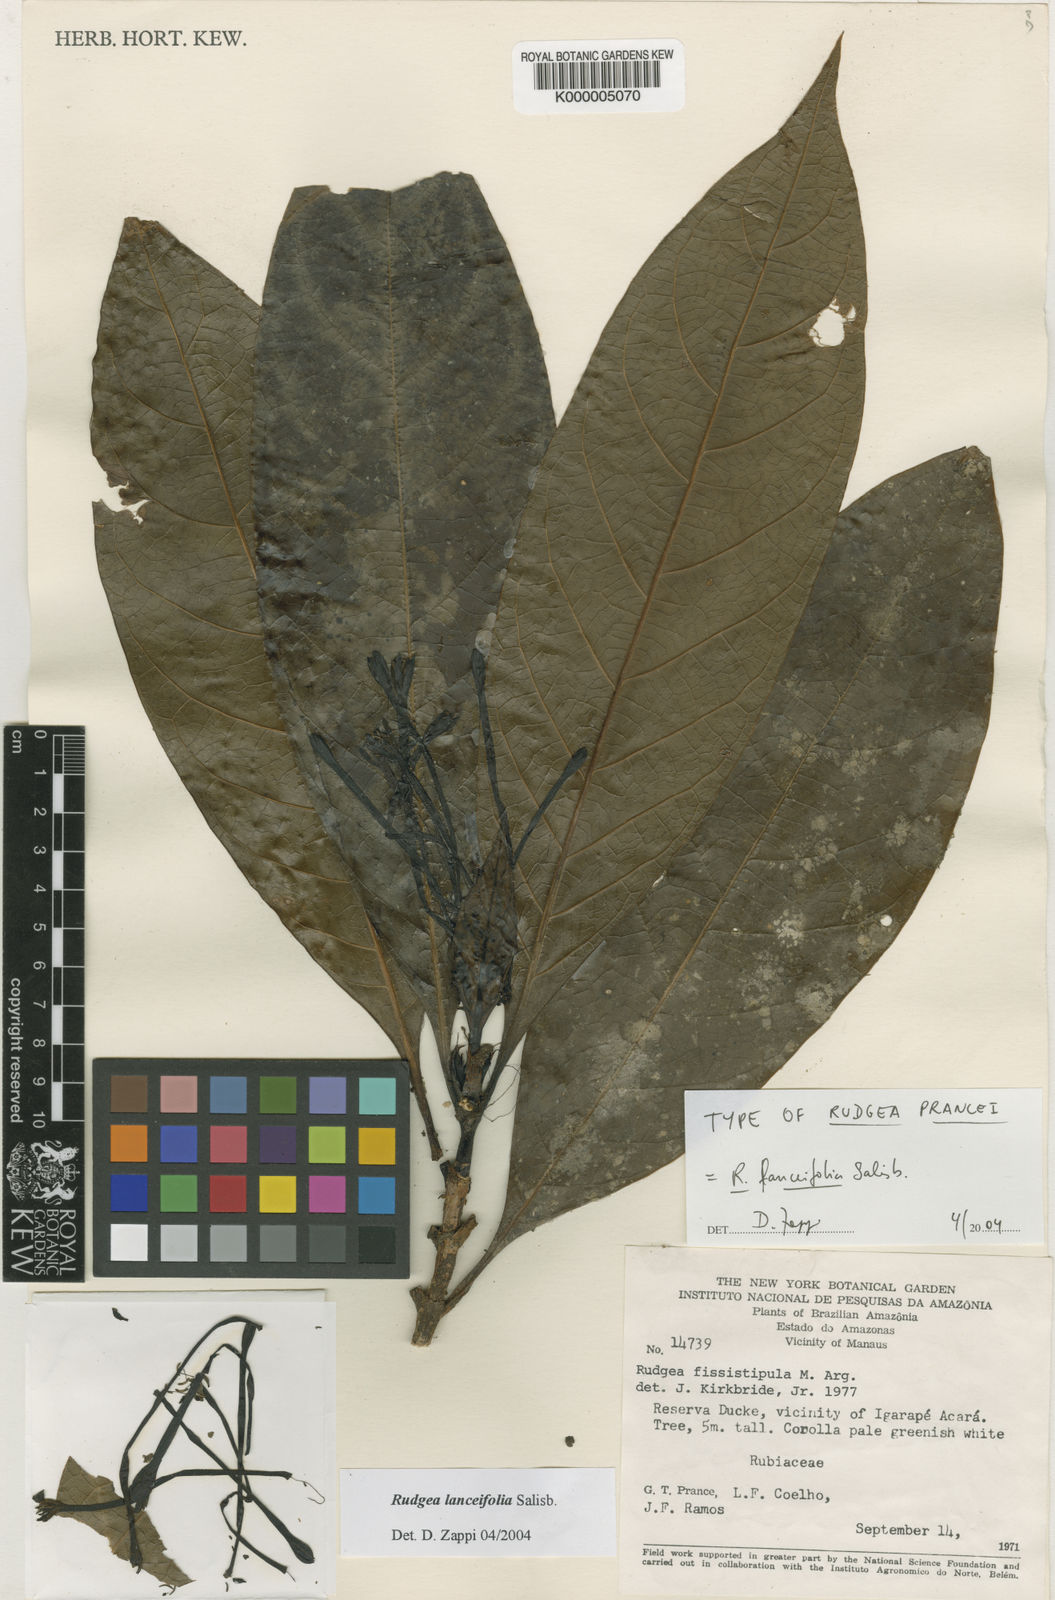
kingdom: Plantae
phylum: Tracheophyta
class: Magnoliopsida
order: Gentianales
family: Rubiaceae
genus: Rudgea
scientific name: Rudgea lanceifolia
